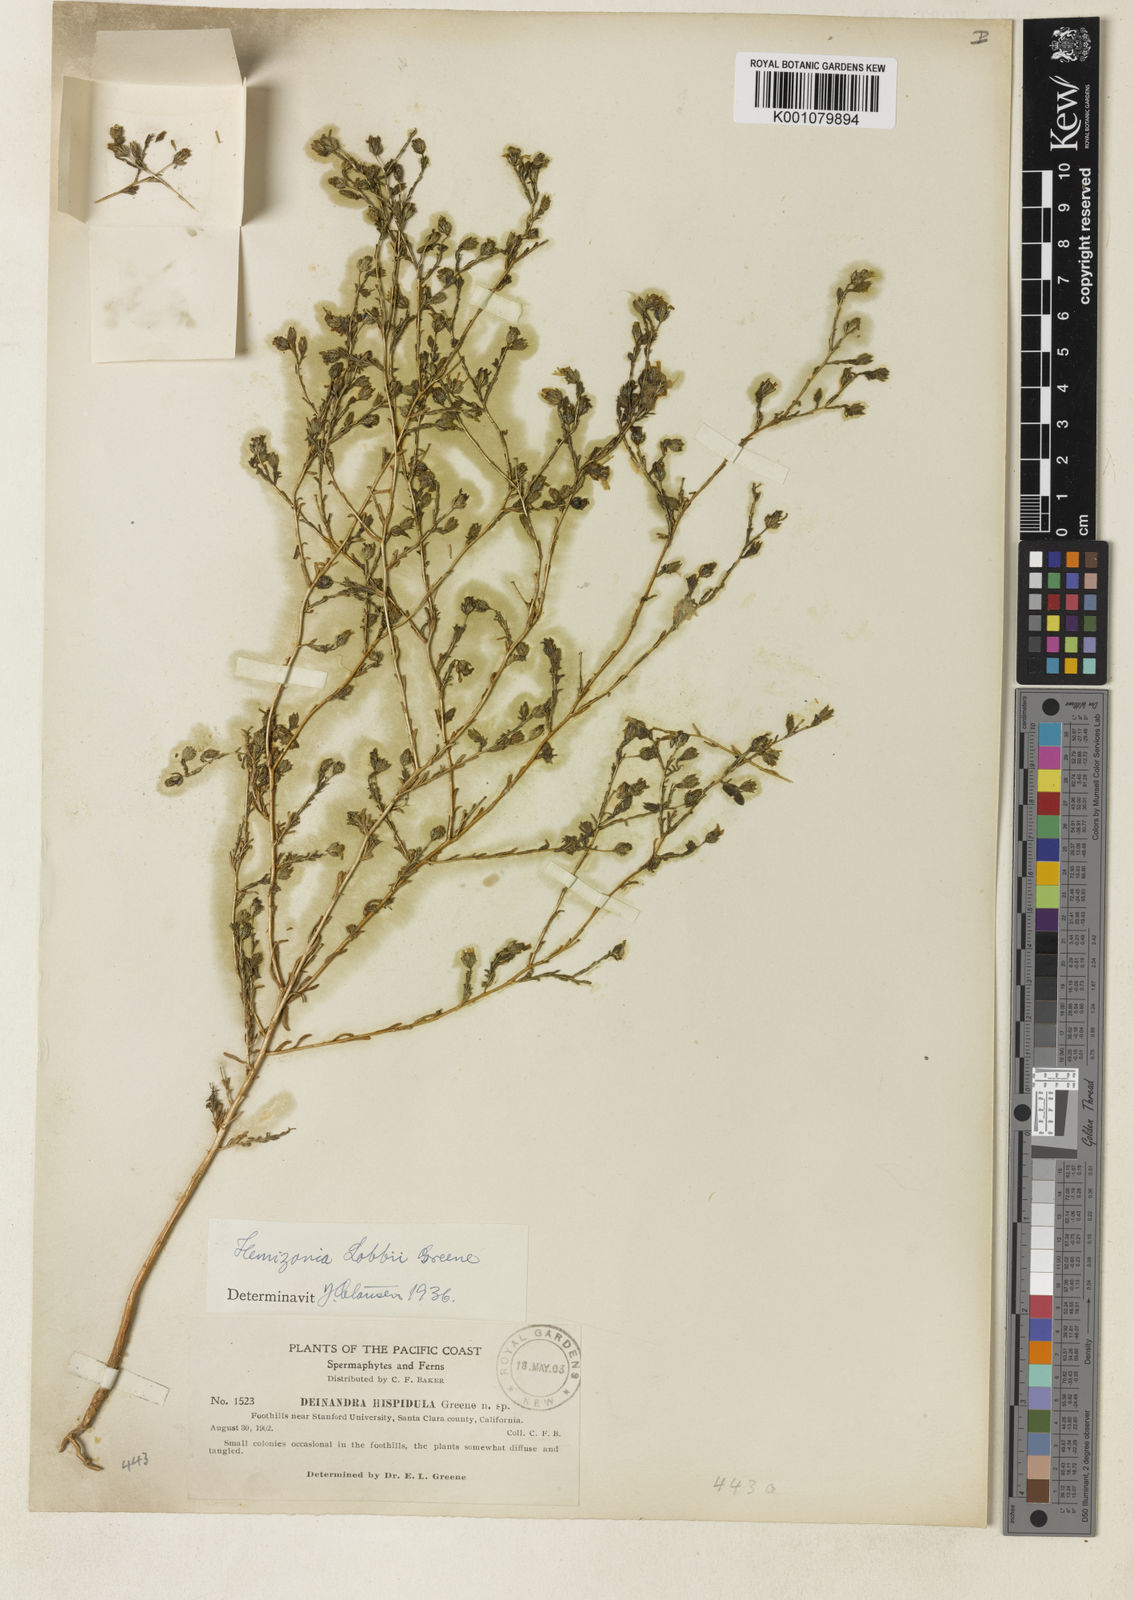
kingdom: Plantae
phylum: Tracheophyta
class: Magnoliopsida
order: Asterales
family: Asteraceae
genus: Deinandra
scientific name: Deinandra fasciculata
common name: Clustered tarweed
